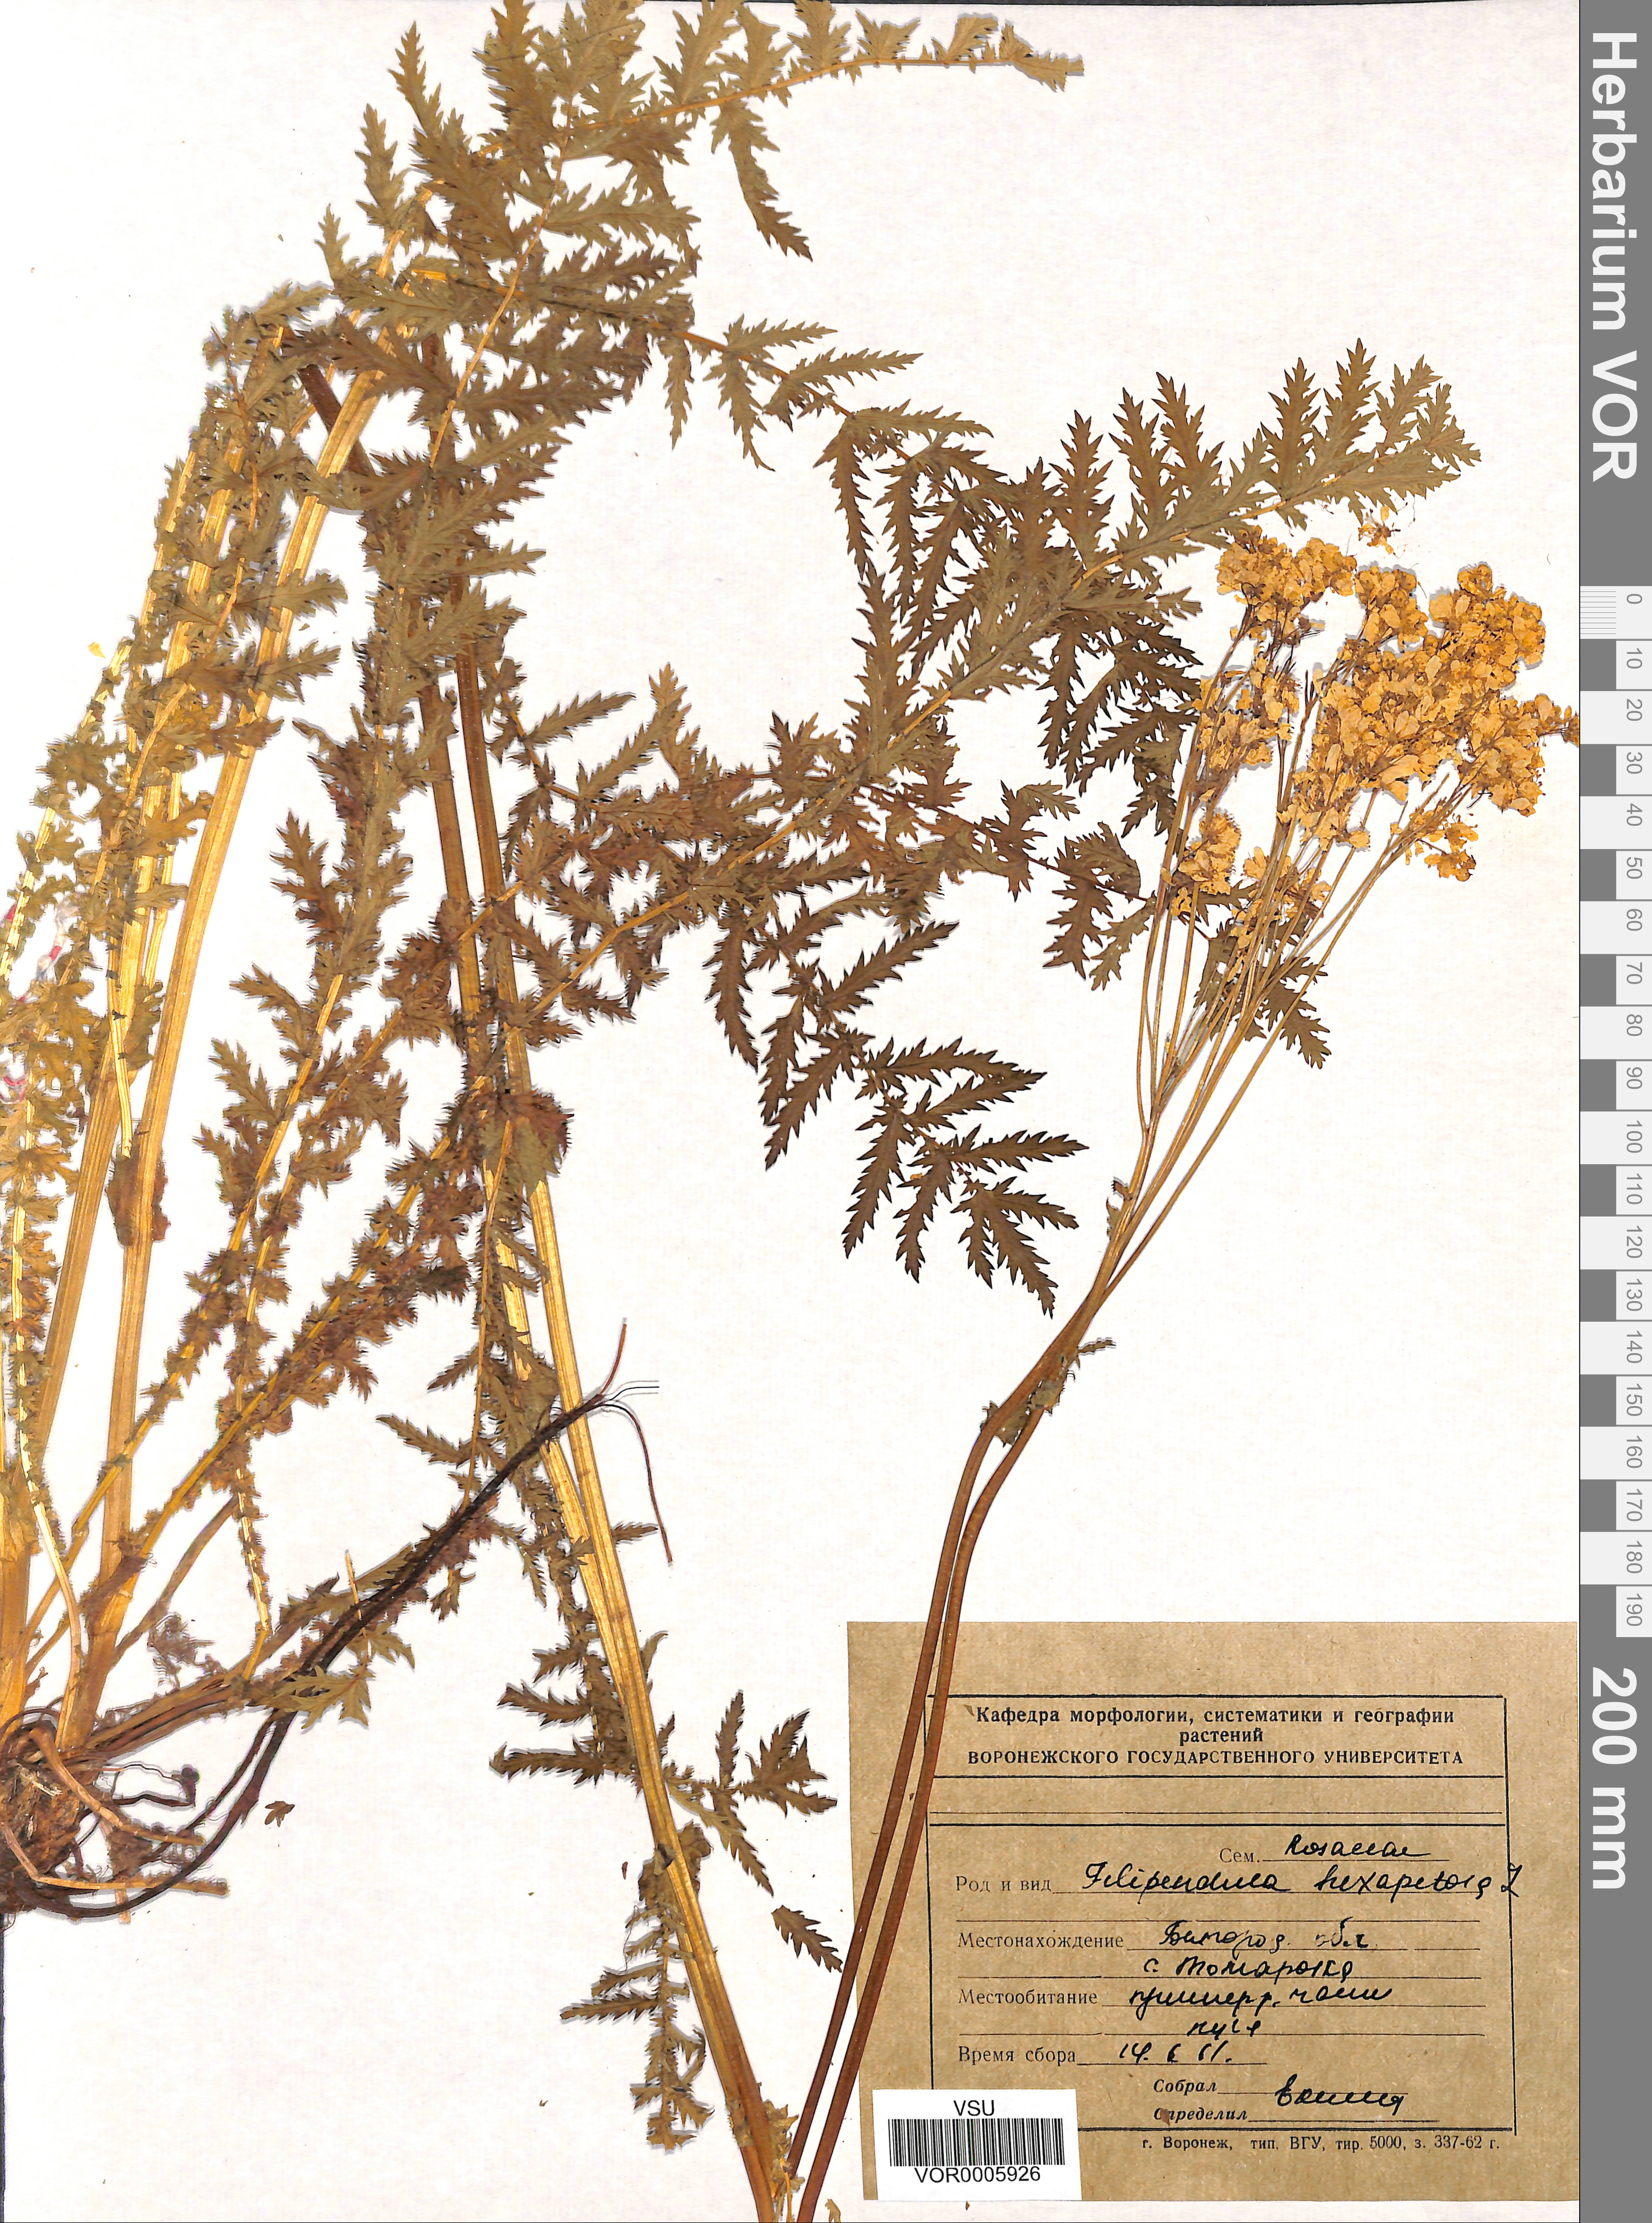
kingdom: Plantae
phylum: Tracheophyta
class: Magnoliopsida
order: Rosales
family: Rosaceae
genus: Filipendula
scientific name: Filipendula vulgaris
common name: Dropwort
